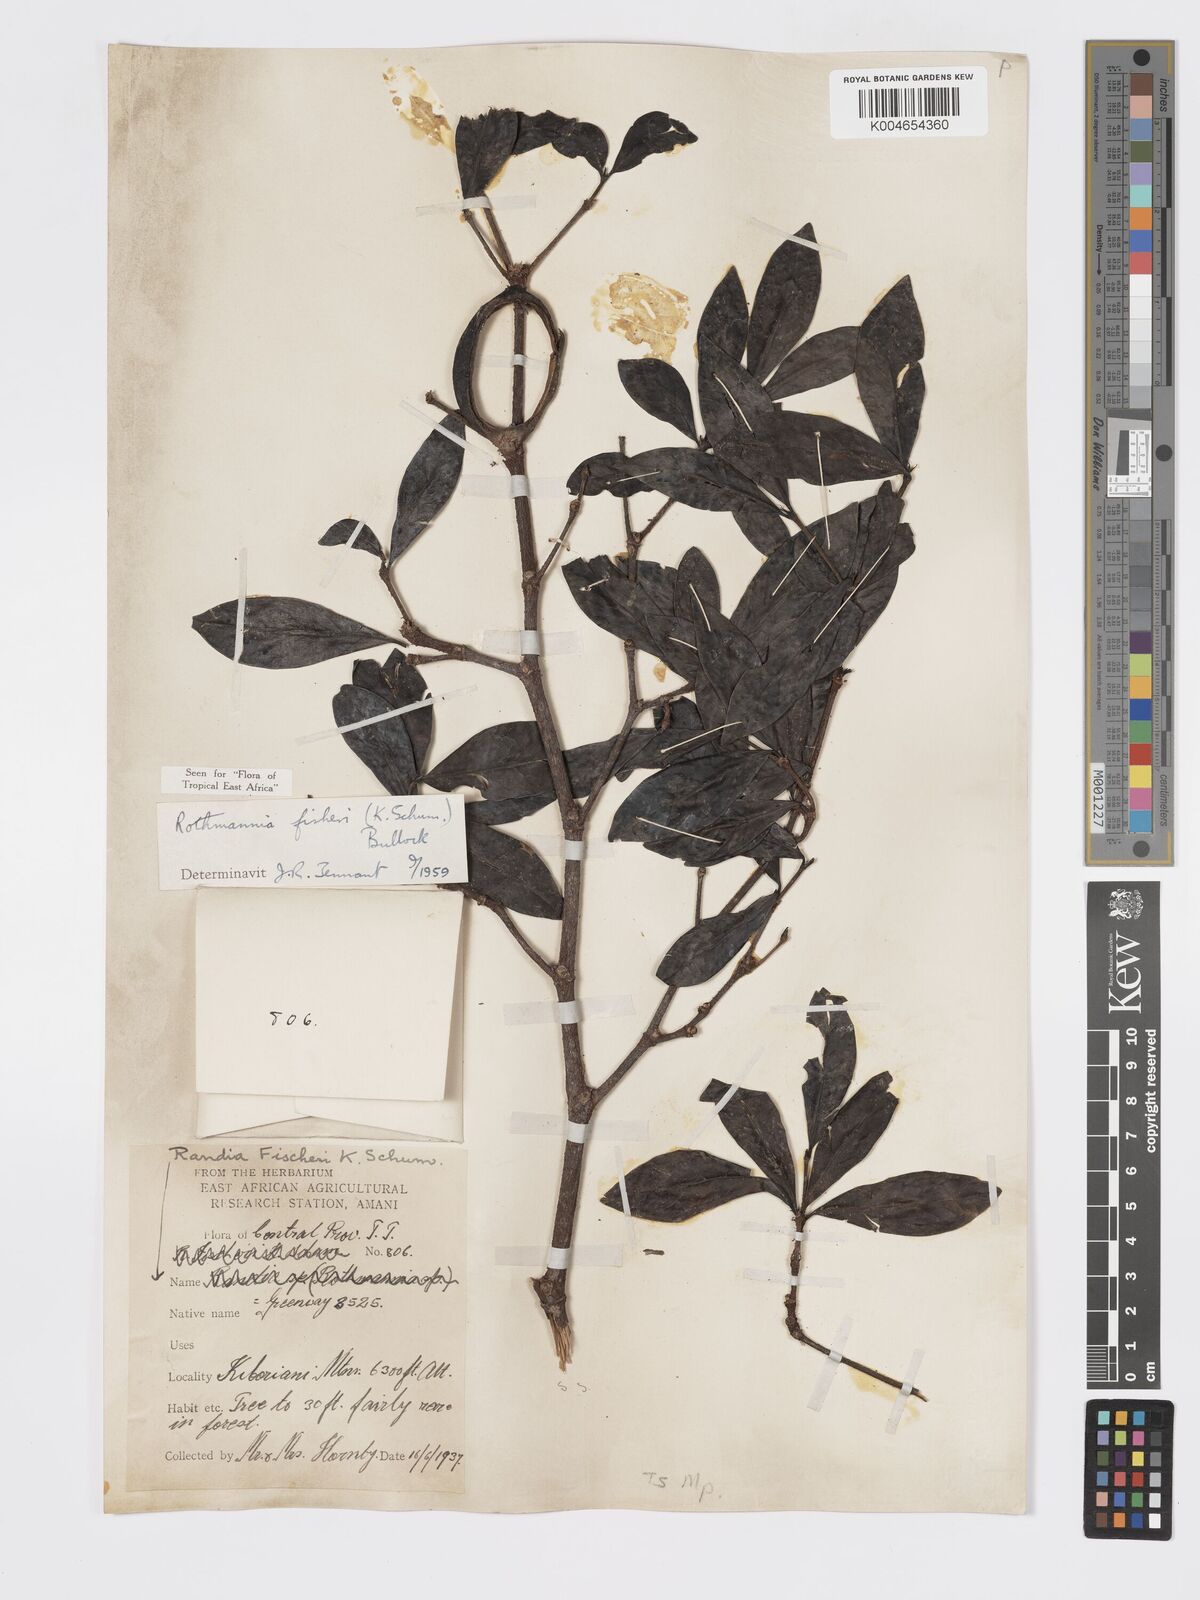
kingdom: Plantae
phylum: Tracheophyta
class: Magnoliopsida
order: Gentianales
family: Rubiaceae
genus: Rothmannia
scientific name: Rothmannia fischeri
